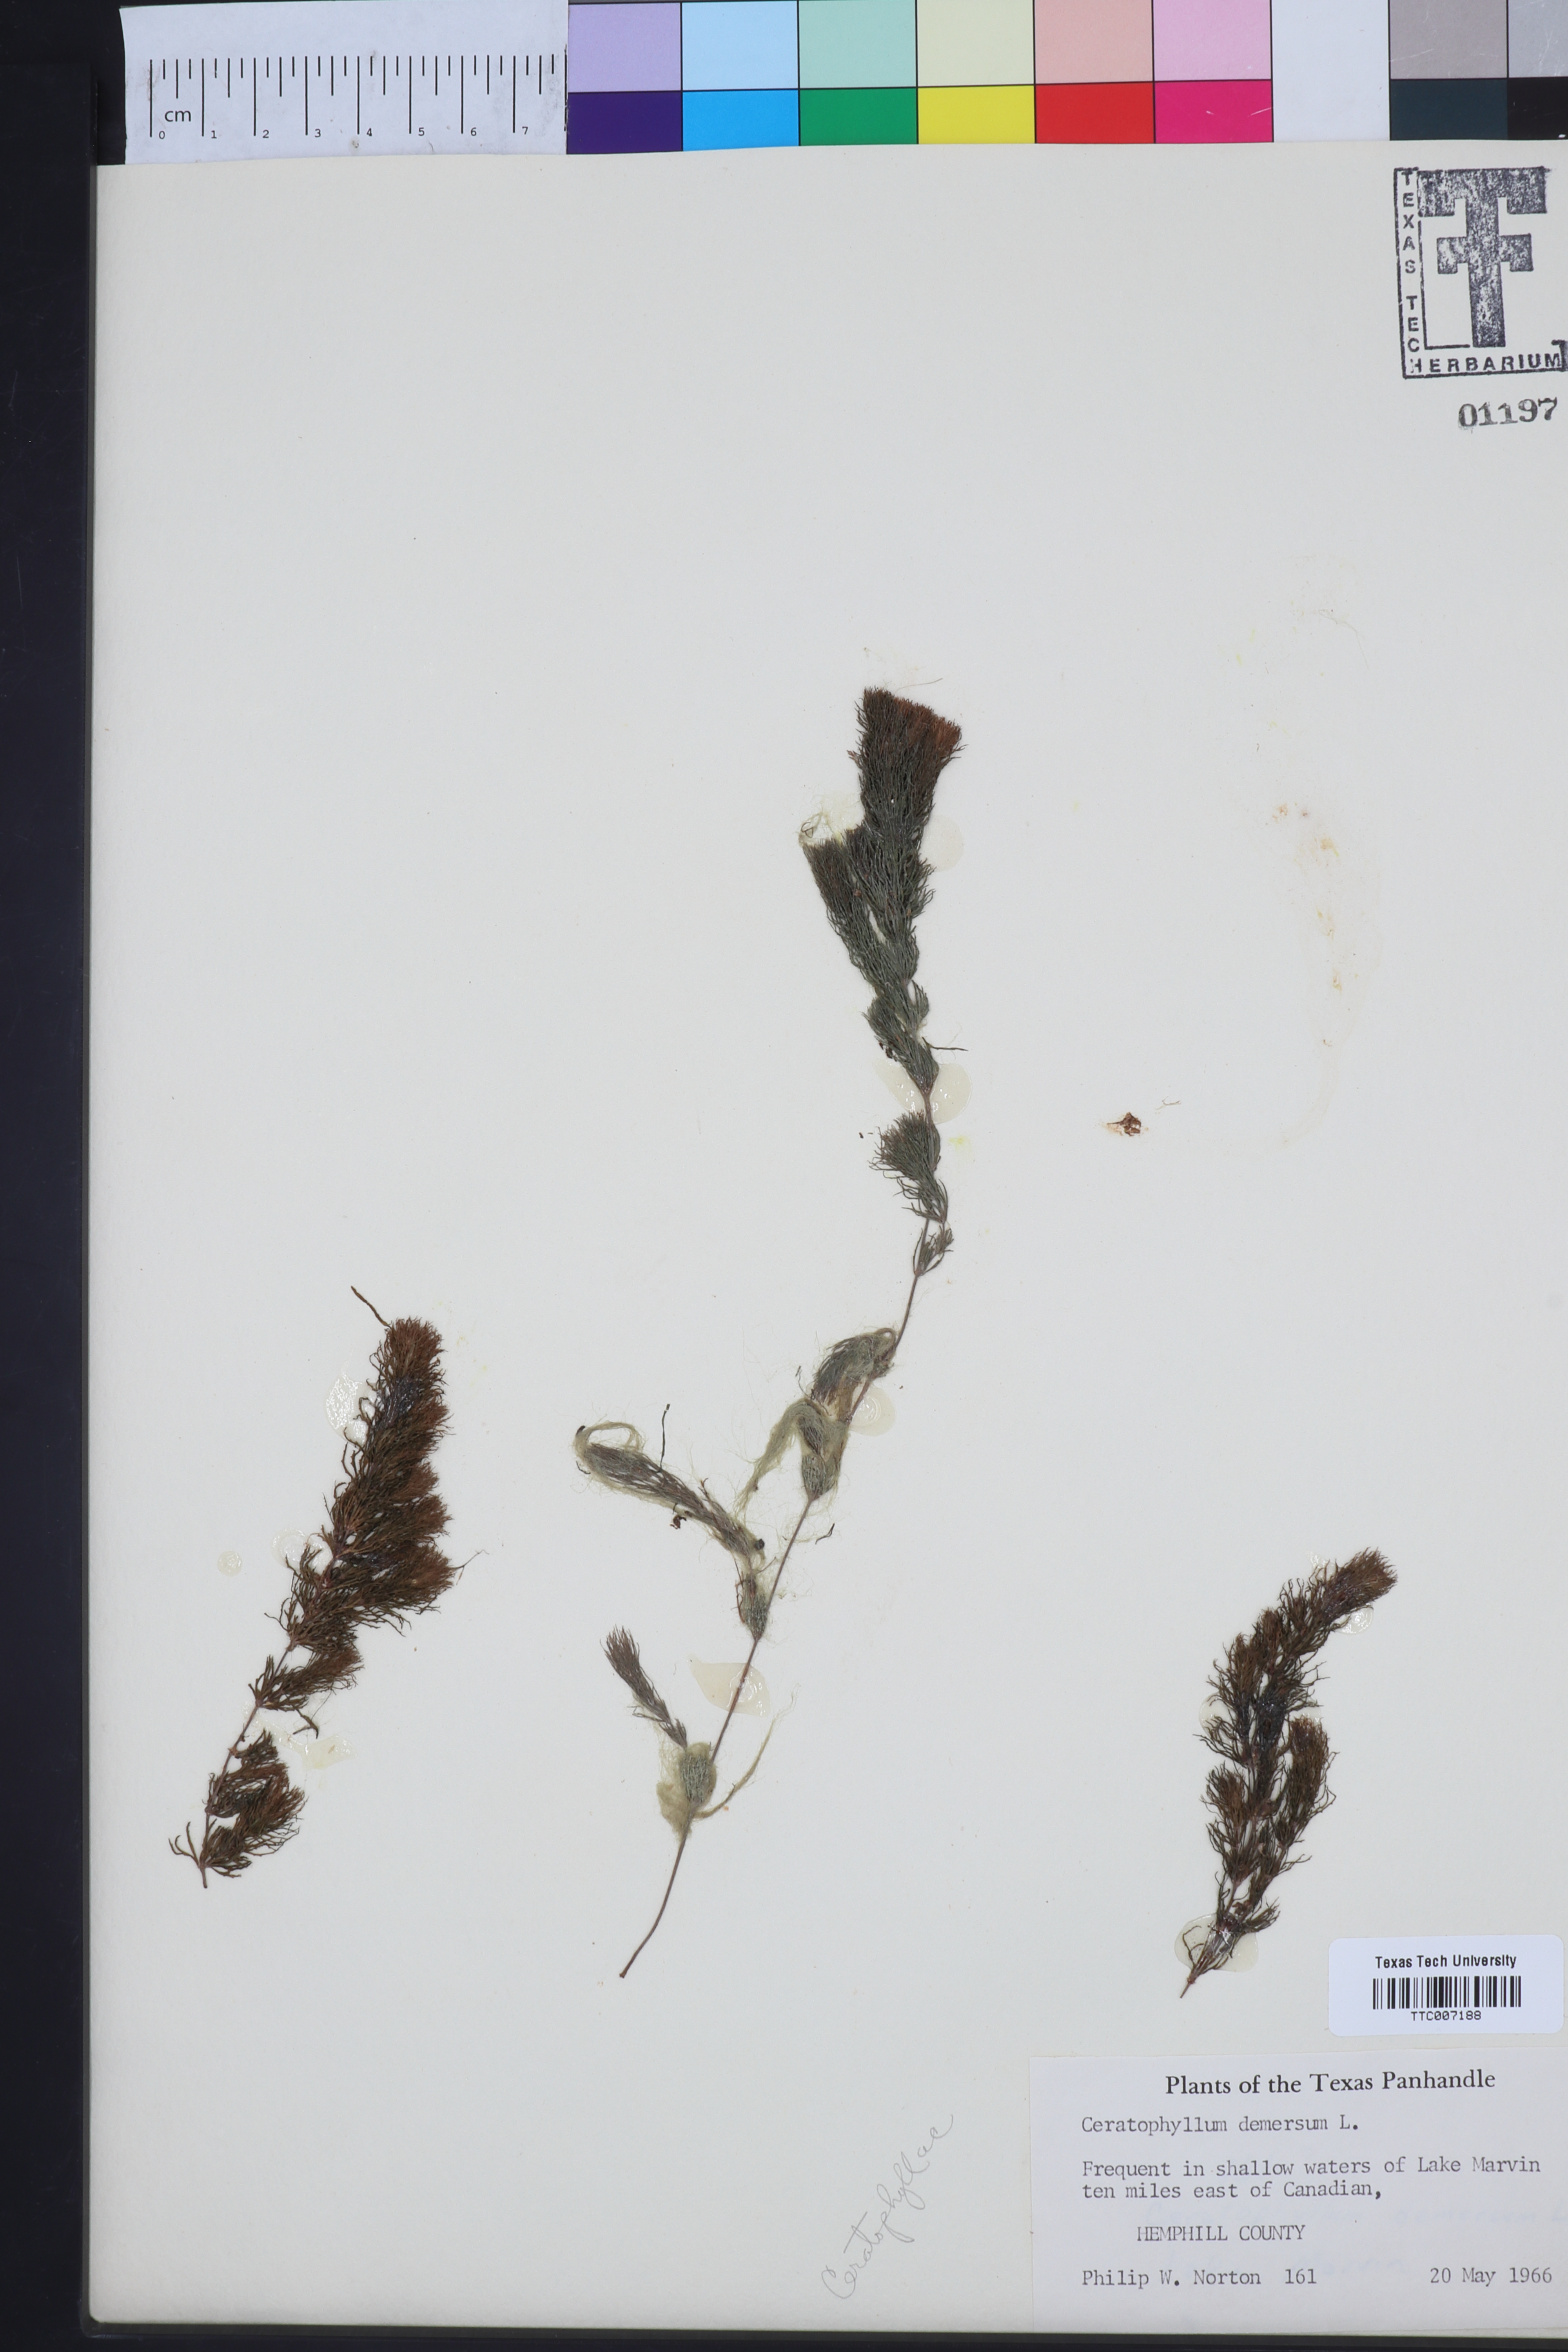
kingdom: Plantae
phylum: Tracheophyta
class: Magnoliopsida
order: Ceratophyllales
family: Ceratophyllaceae
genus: Ceratophyllum
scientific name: Ceratophyllum demersum
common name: Rigid hornwort
